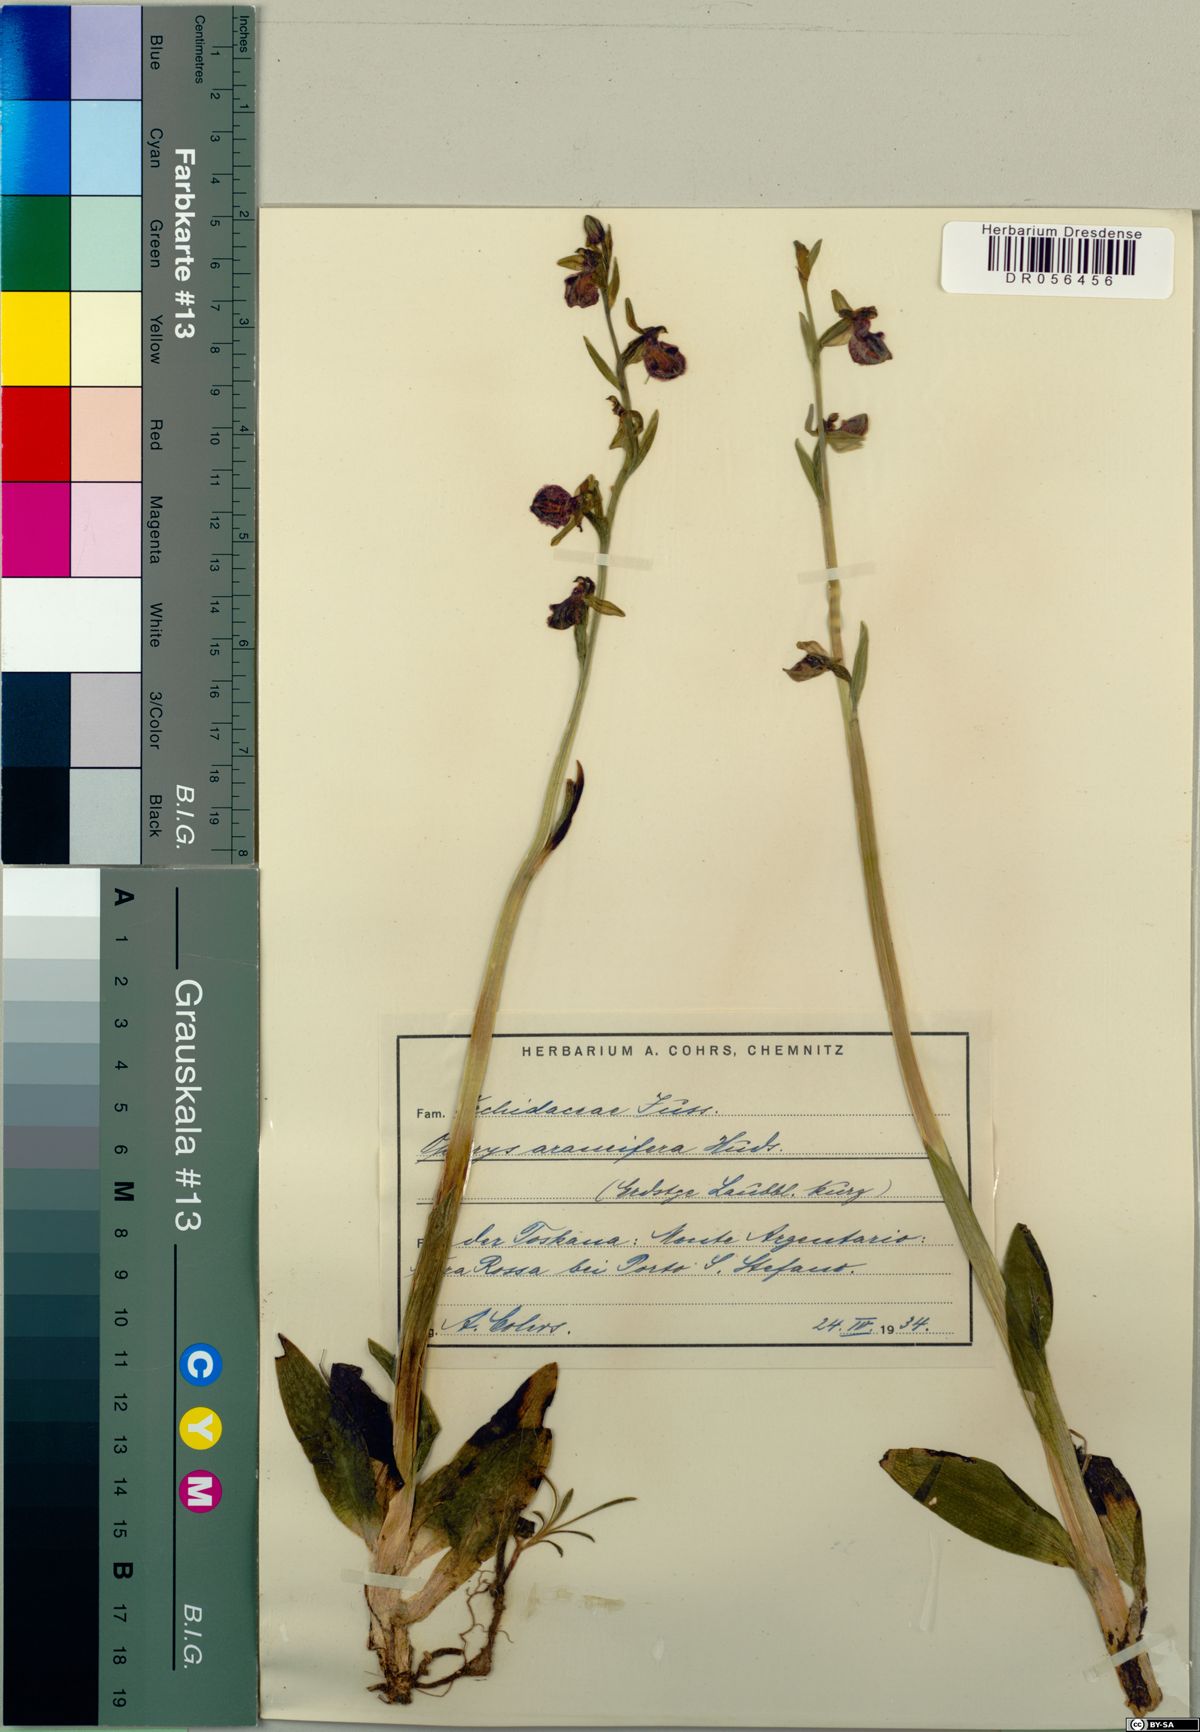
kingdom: Plantae
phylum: Tracheophyta
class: Liliopsida
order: Asparagales
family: Orchidaceae
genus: Ophrys
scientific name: Ophrys sphegodes
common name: Early spider-orchid
